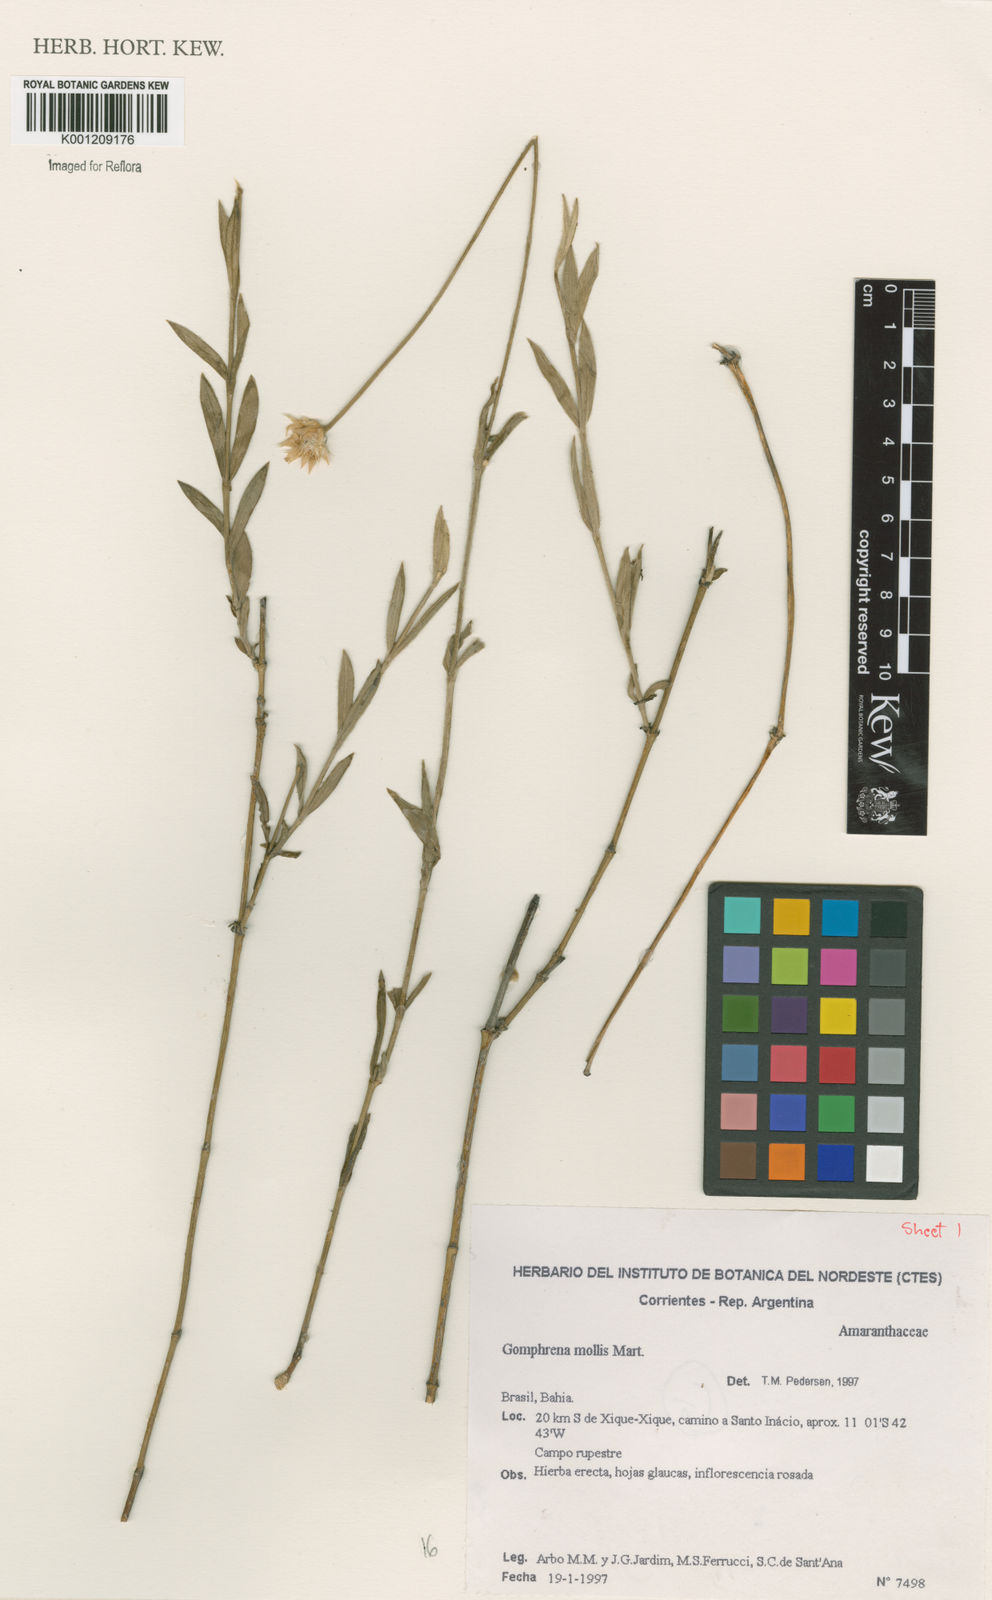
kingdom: Plantae
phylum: Tracheophyta
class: Magnoliopsida
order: Caryophyllales
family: Amaranthaceae
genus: Gomphrena
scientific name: Gomphrena mollis
